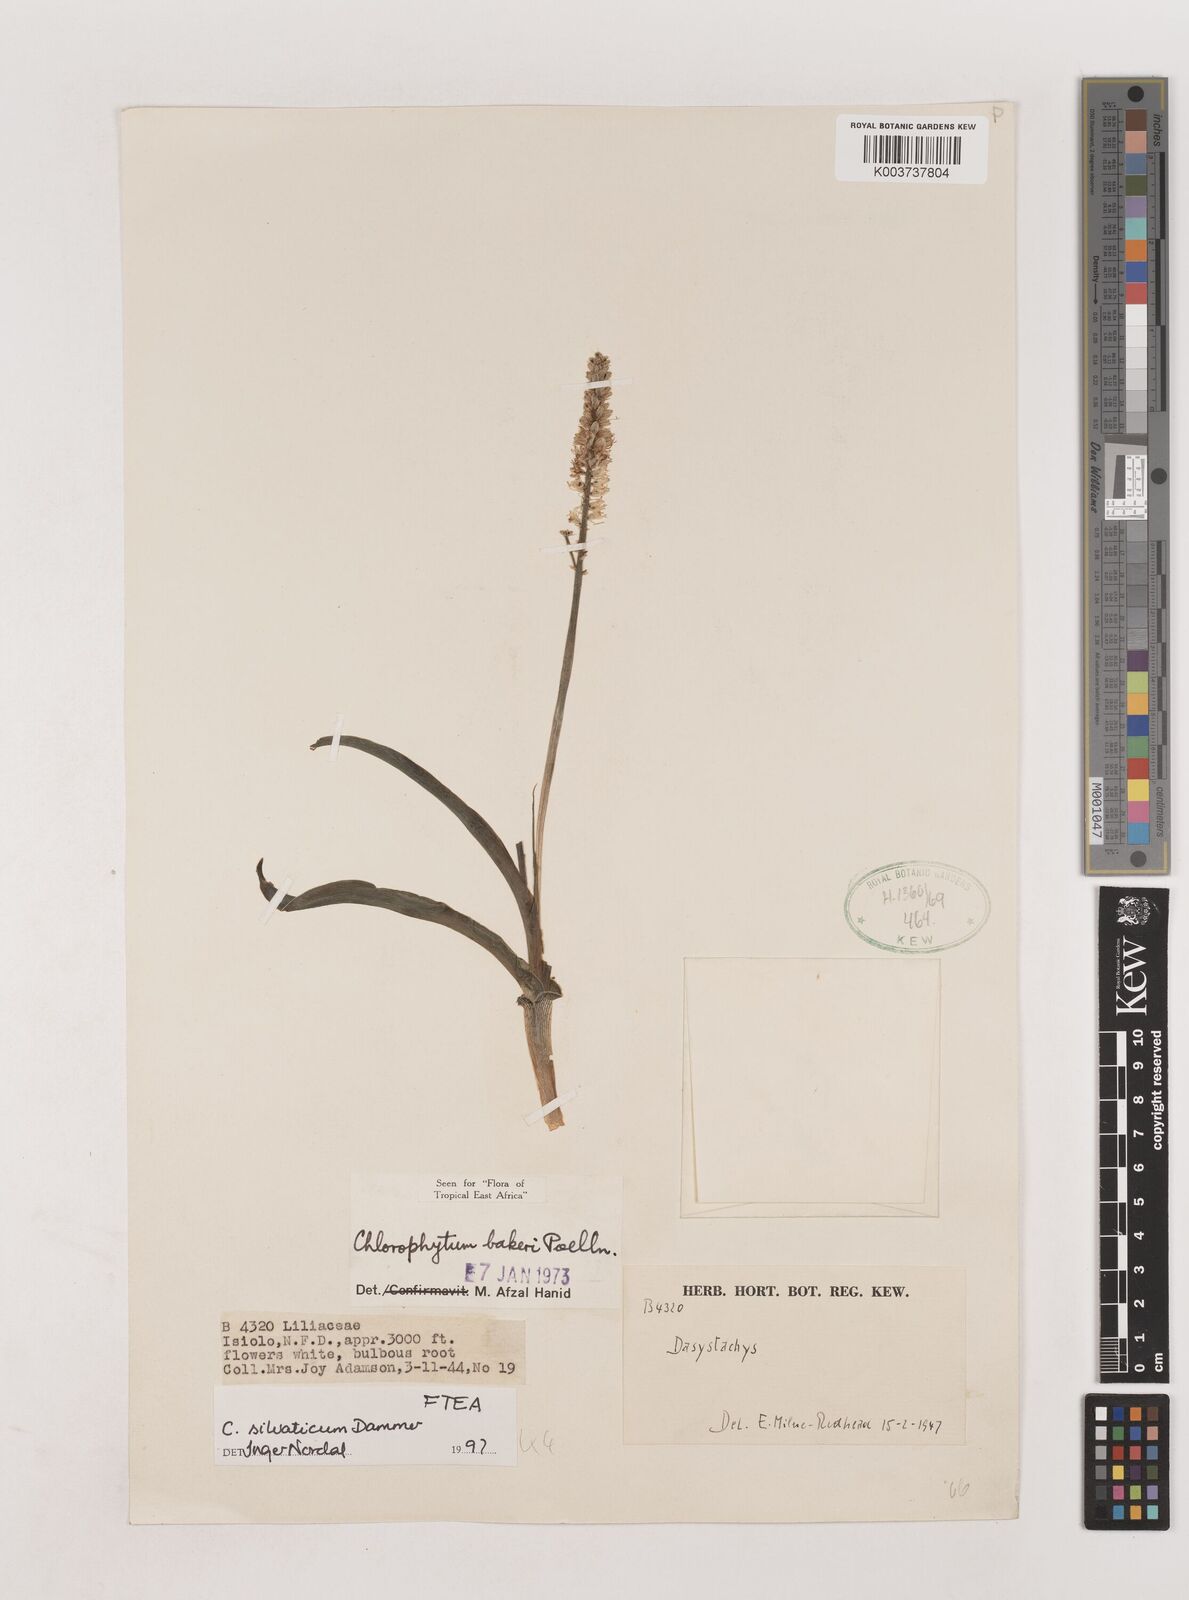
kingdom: Plantae
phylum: Tracheophyta
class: Liliopsida
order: Asparagales
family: Asparagaceae
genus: Chlorophytum
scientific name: Chlorophytum africanum
